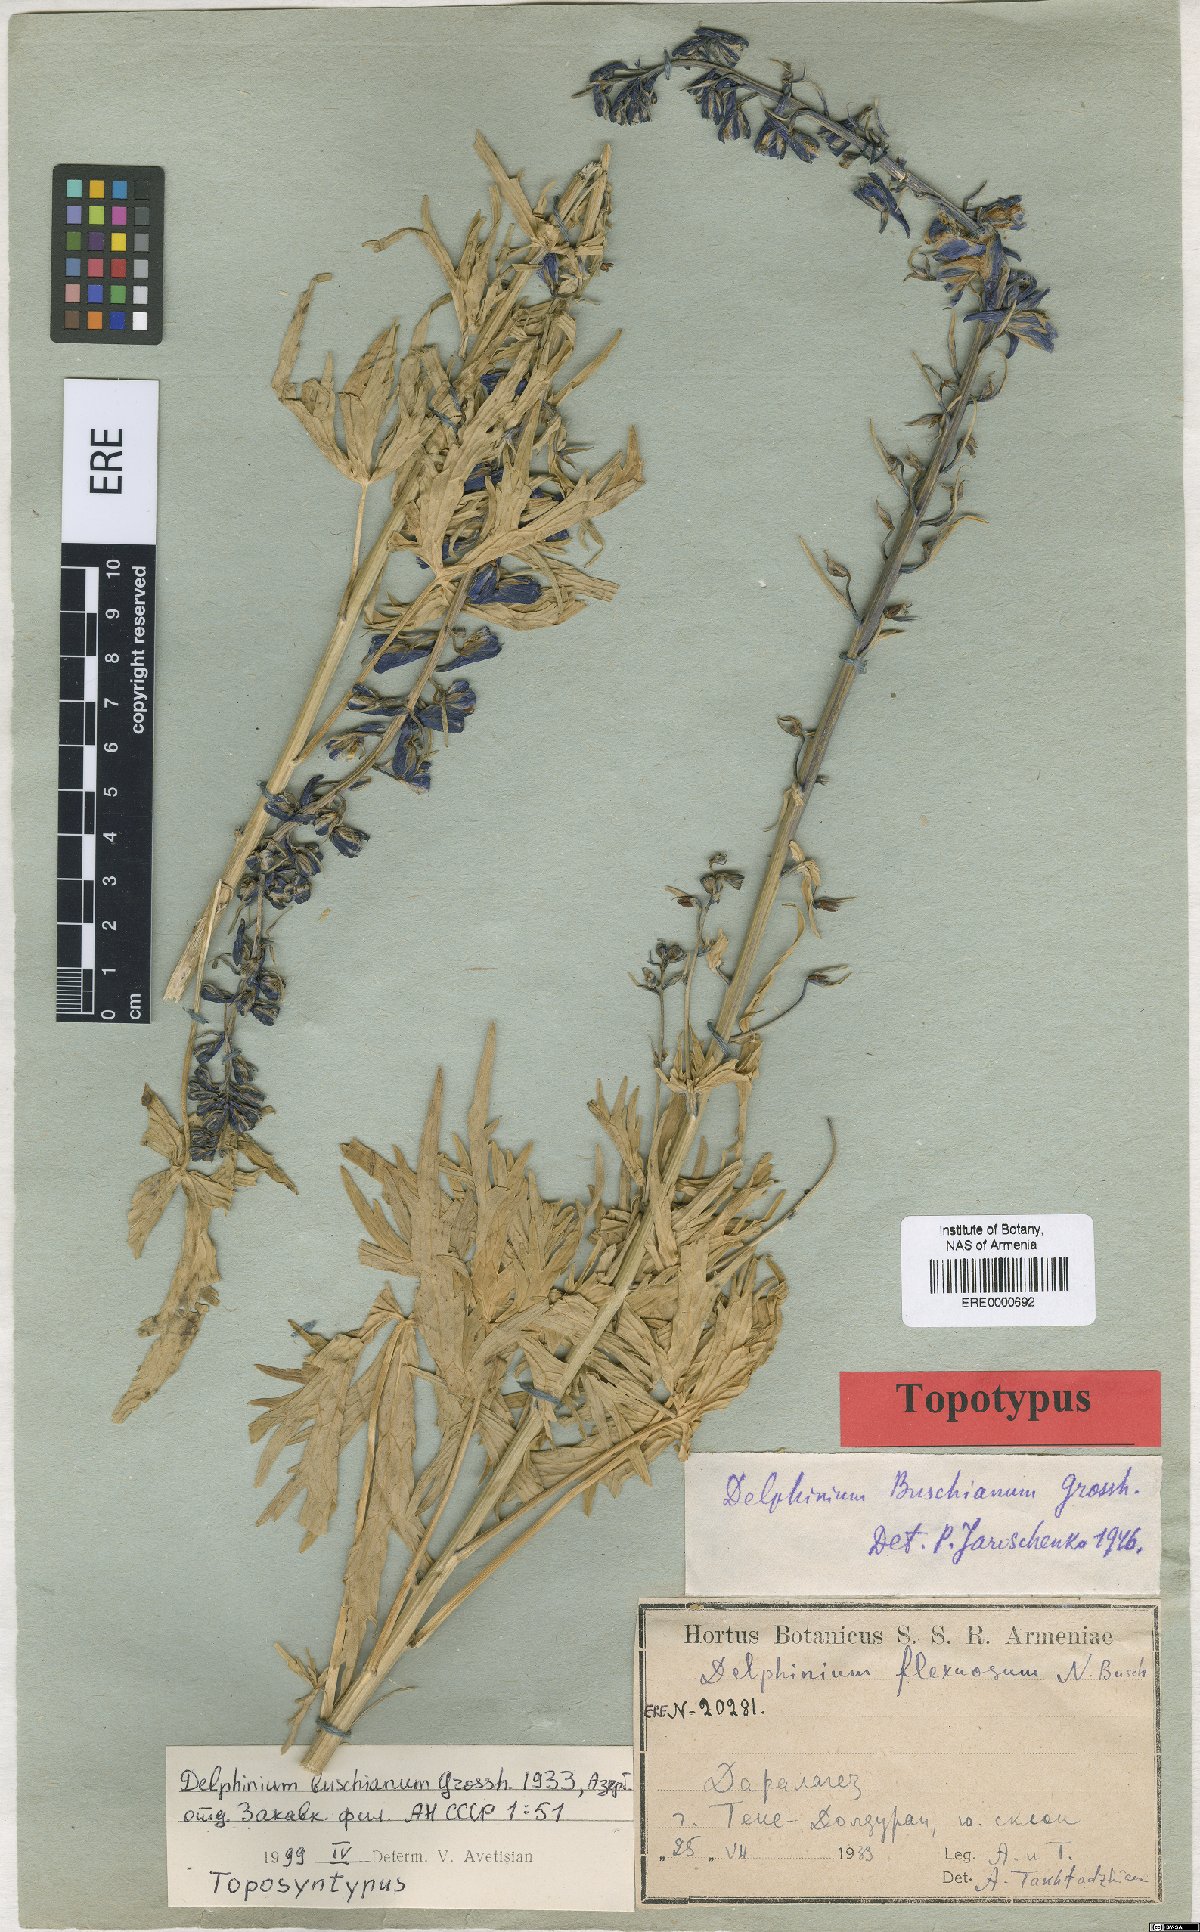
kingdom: Plantae
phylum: Tracheophyta
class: Magnoliopsida
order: Ranunculales
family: Ranunculaceae
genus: Delphinium
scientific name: Delphinium buschianum
